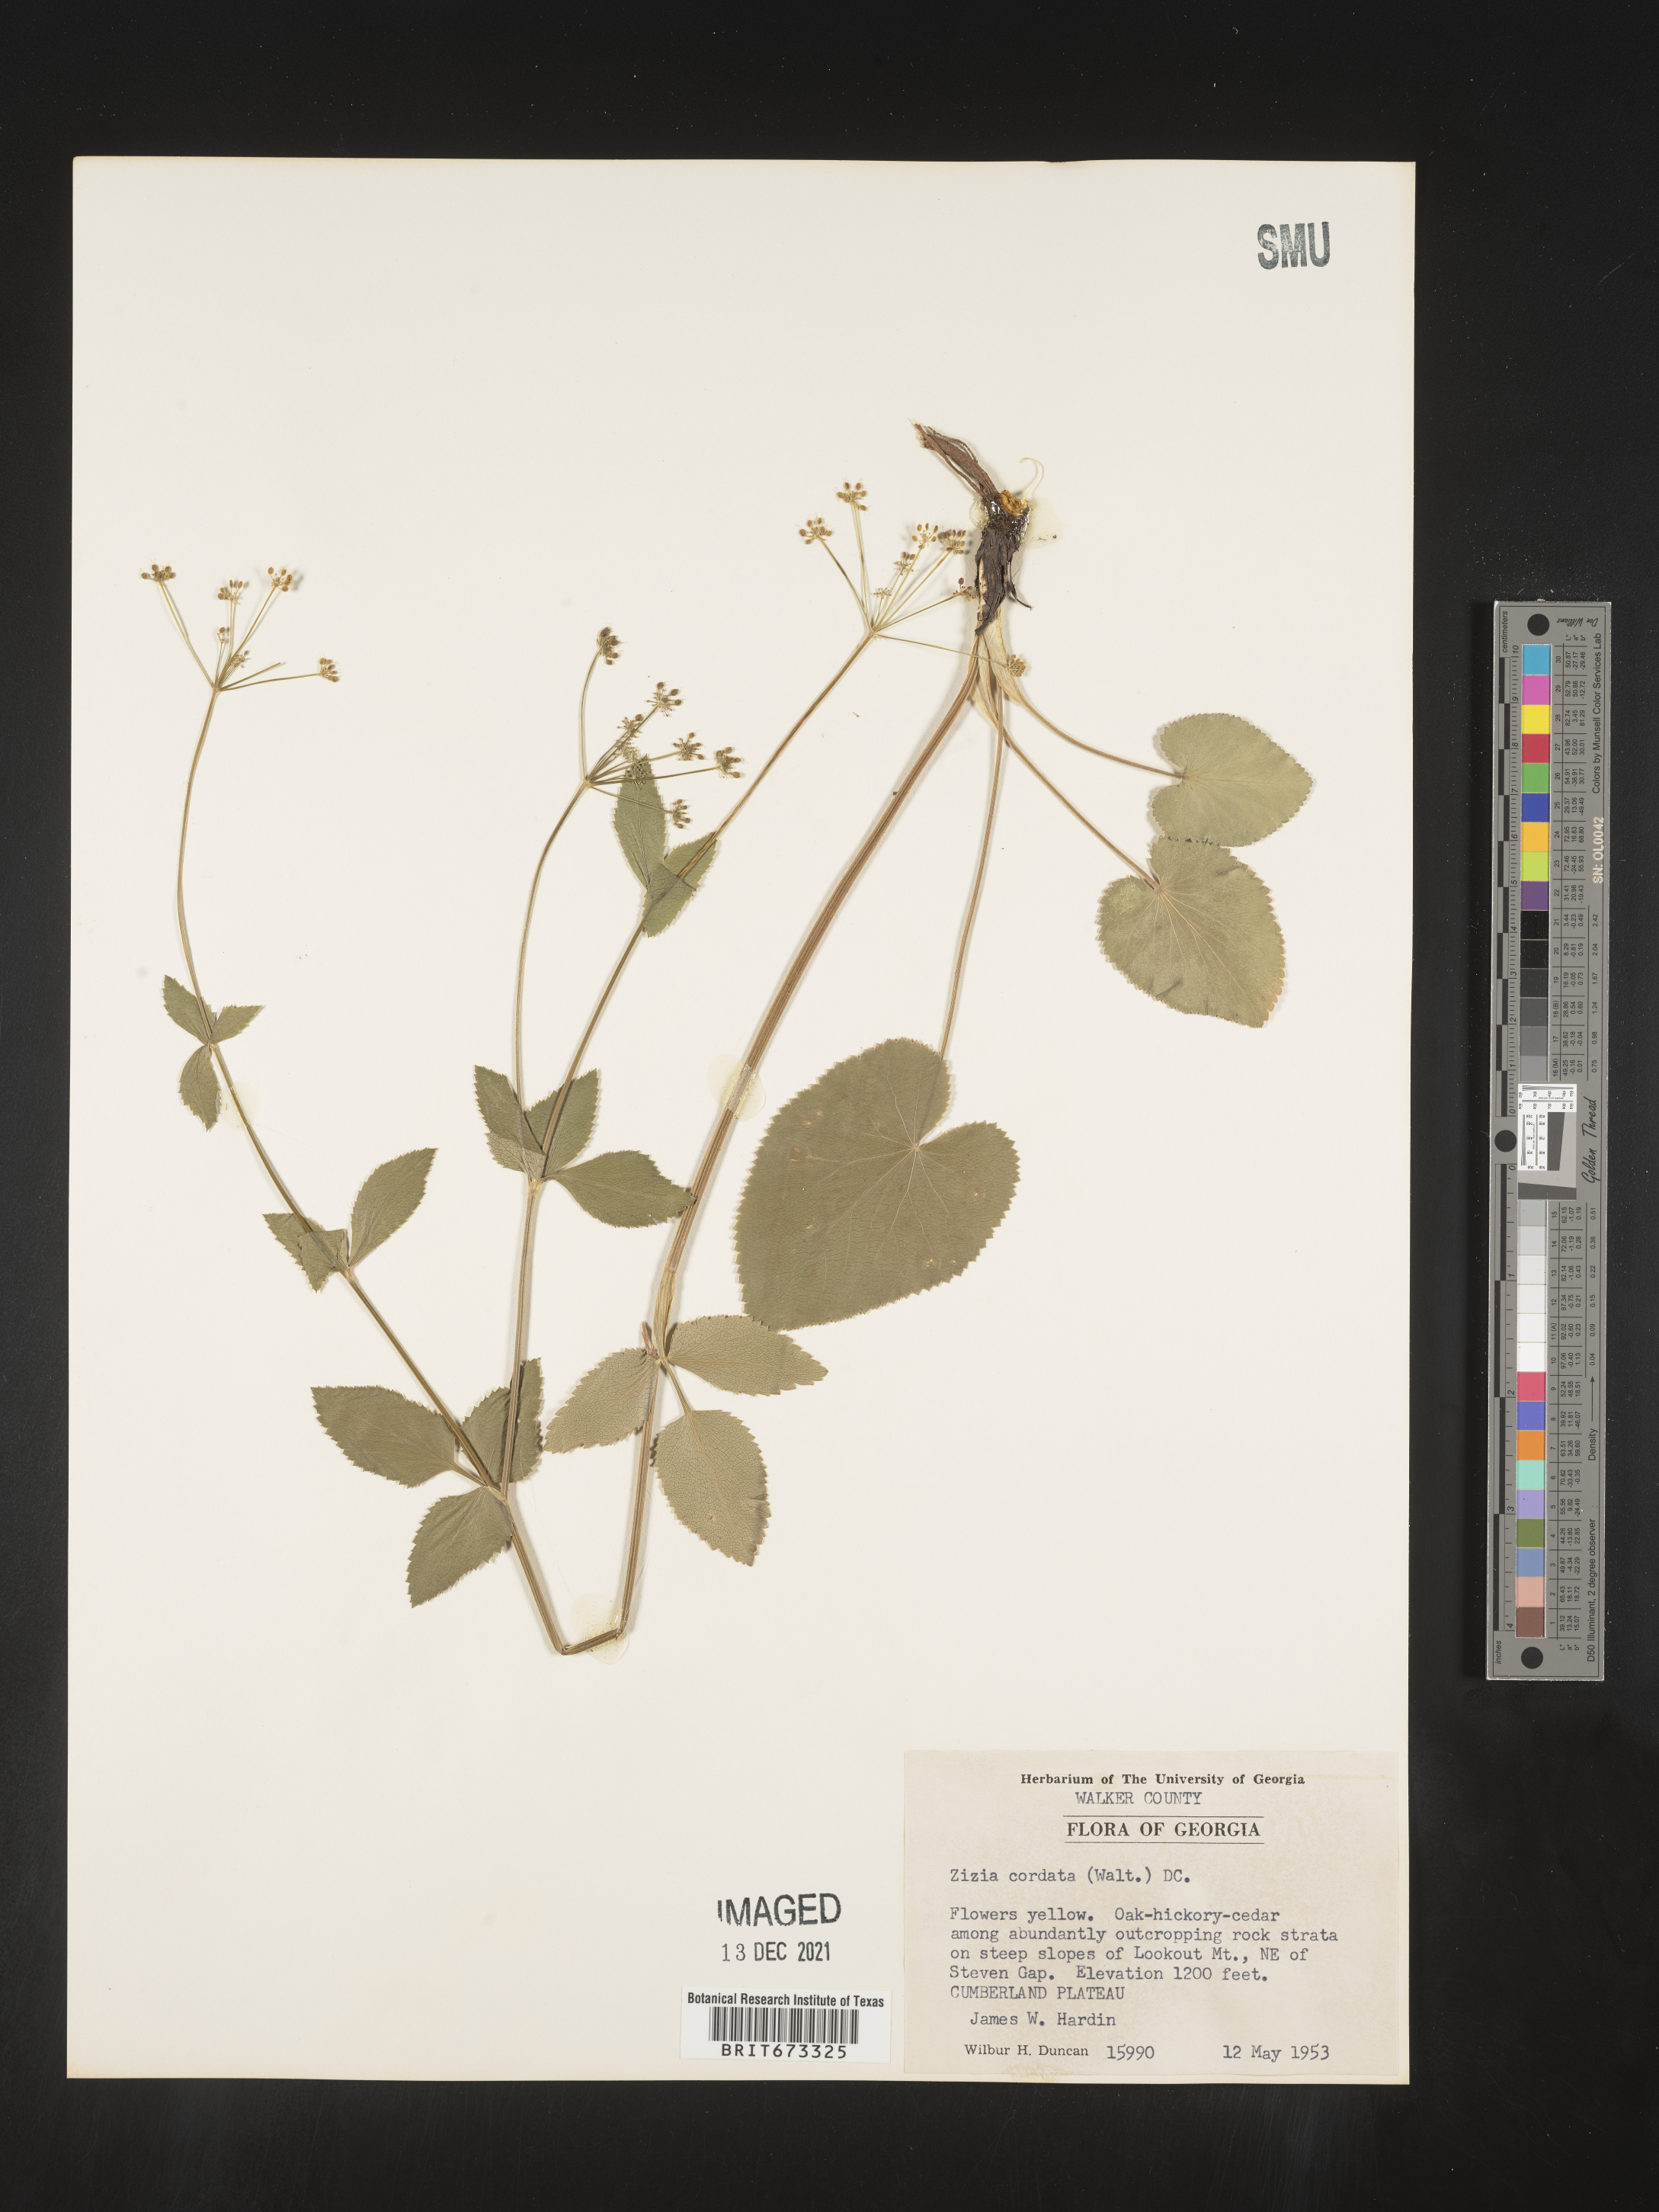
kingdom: Plantae
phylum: Tracheophyta
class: Magnoliopsida
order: Apiales
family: Apiaceae
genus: Zizia
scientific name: Zizia aptera
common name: Heart-leaved alexanders
